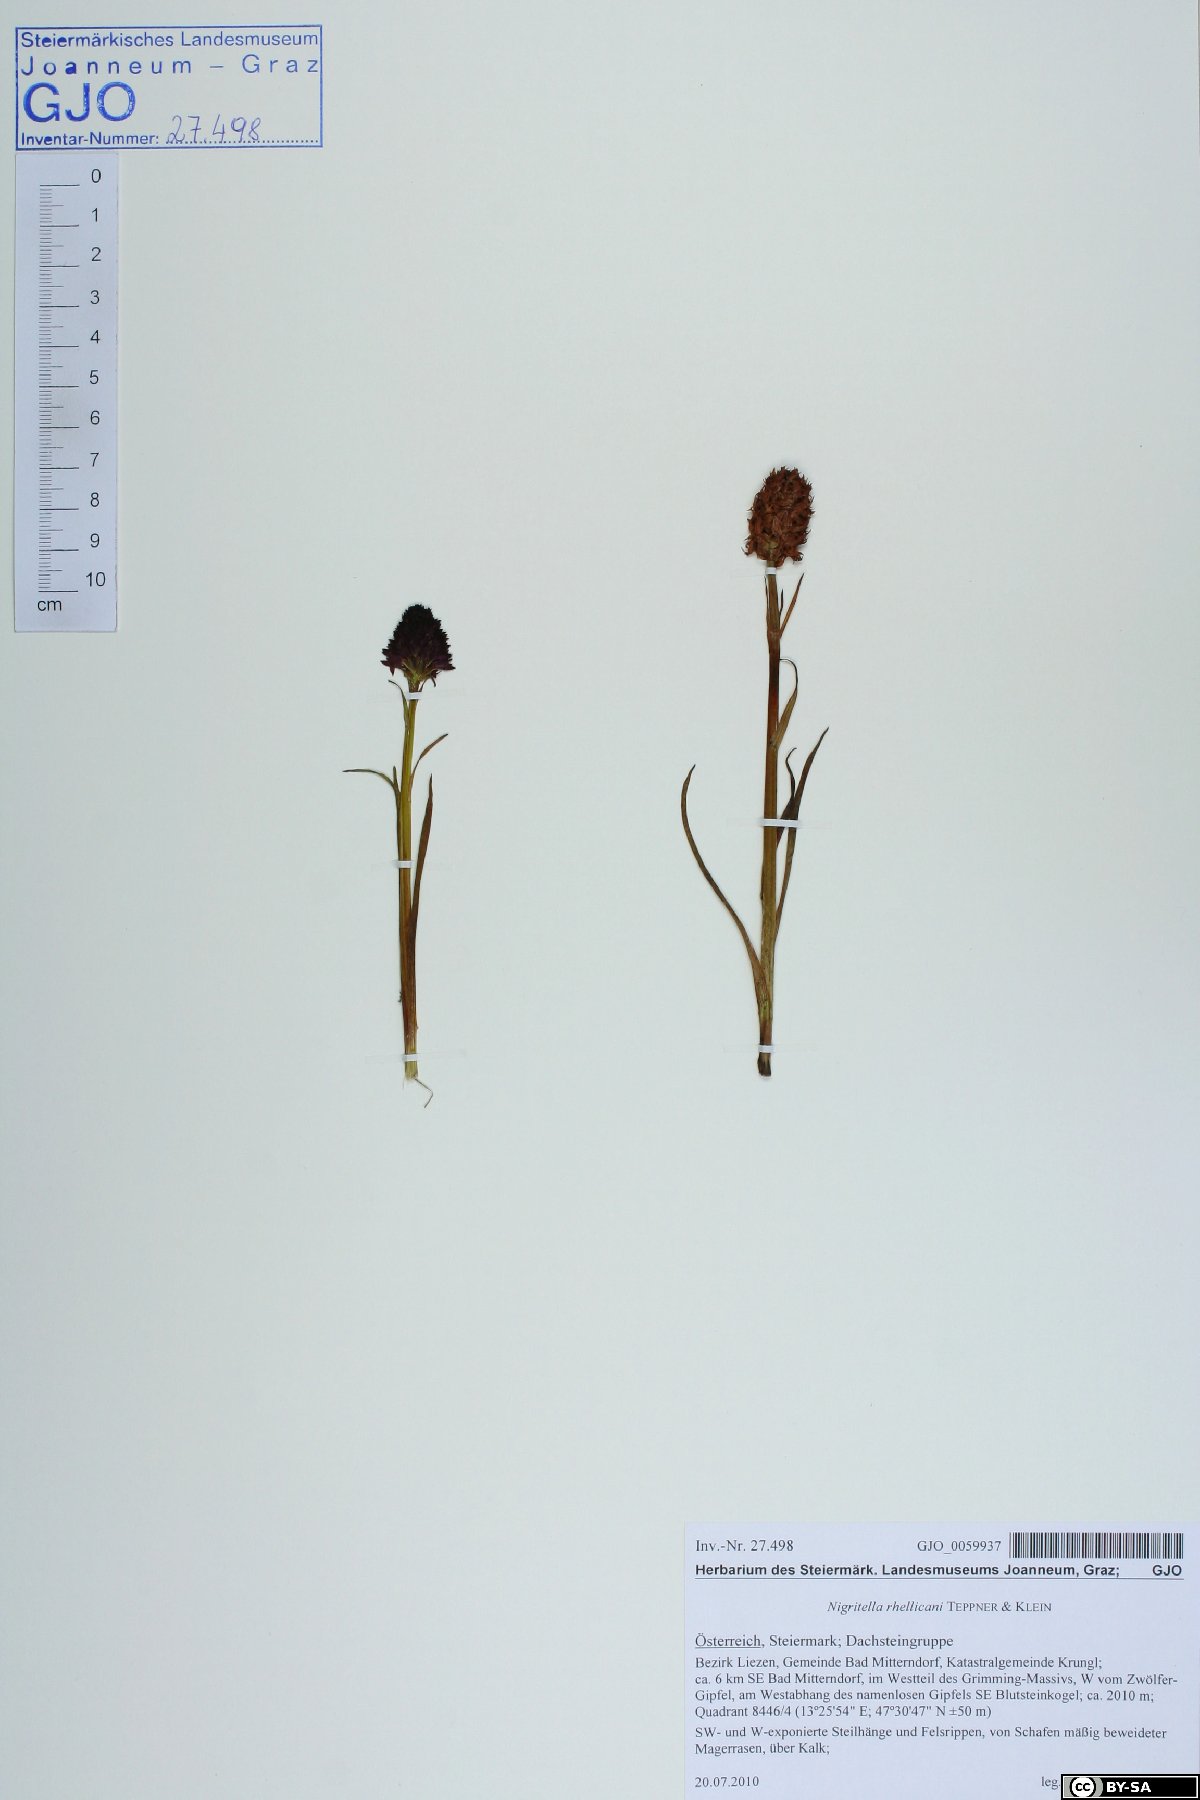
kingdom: Plantae
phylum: Tracheophyta
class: Liliopsida
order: Asparagales
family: Orchidaceae
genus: Gymnadenia
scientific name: Gymnadenia rhellicani
